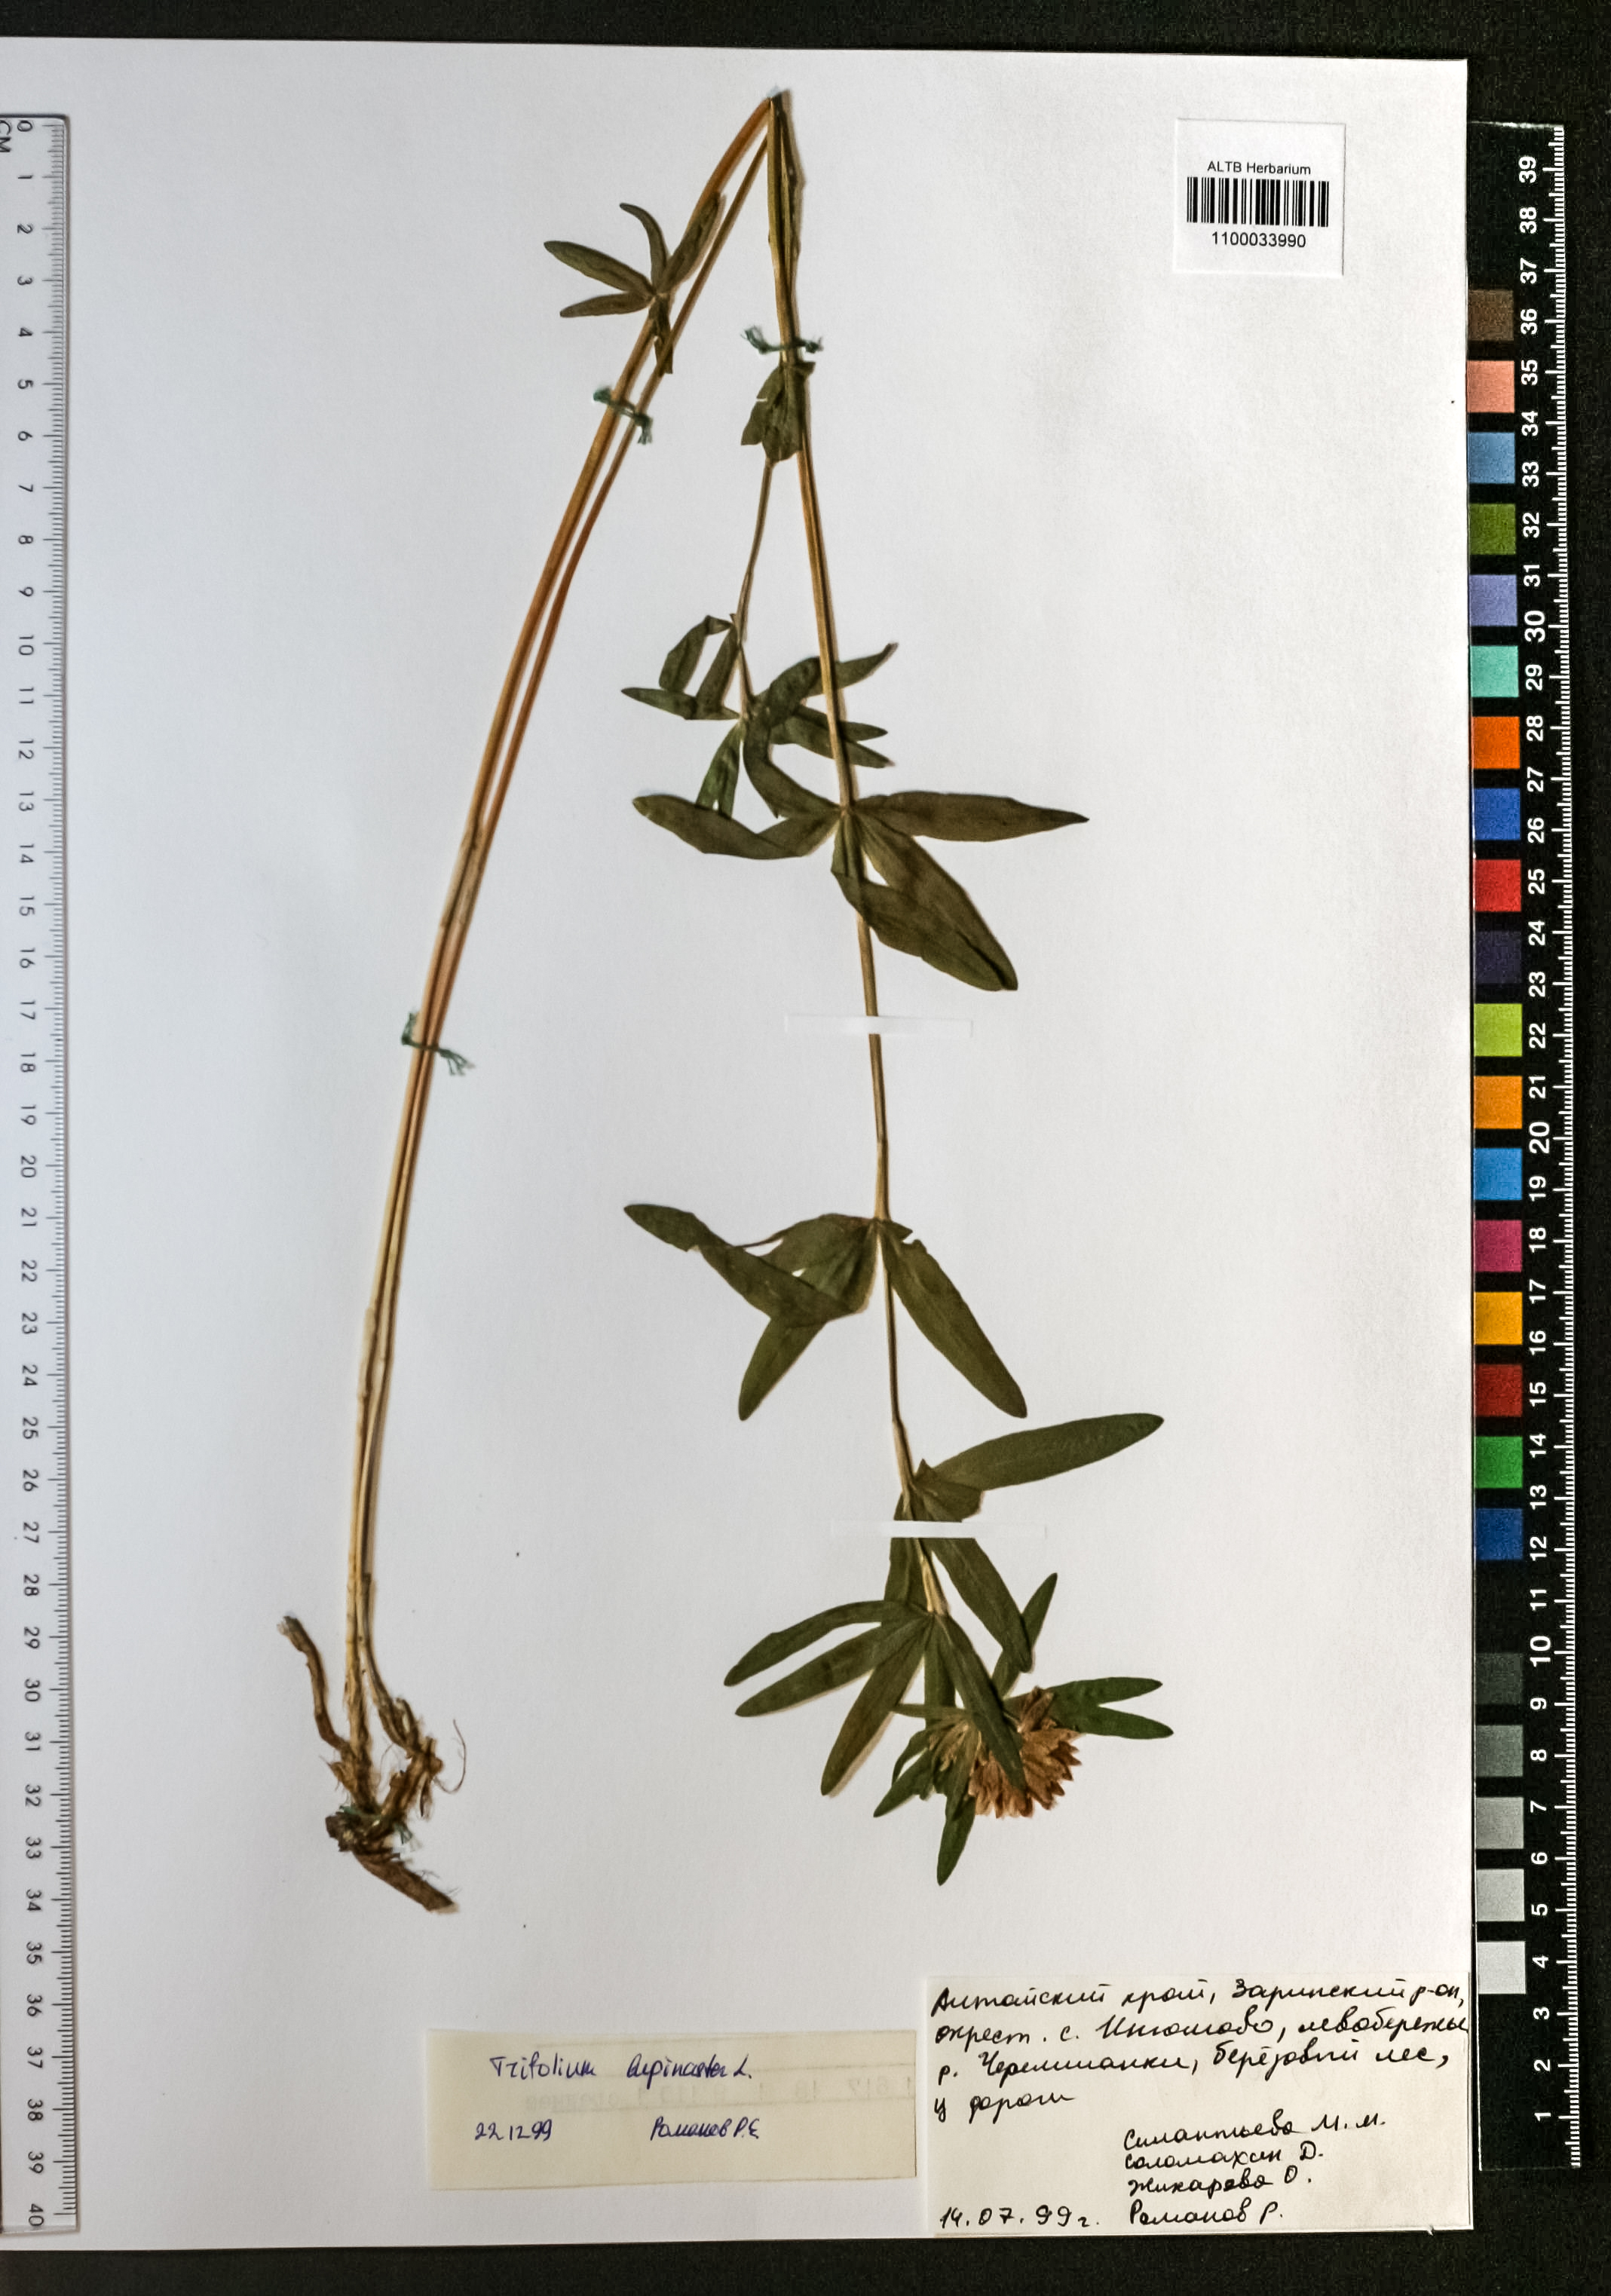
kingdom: Plantae
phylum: Tracheophyta
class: Magnoliopsida
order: Fabales
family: Fabaceae
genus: Trifolium
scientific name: Trifolium lupinaster
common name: Lupine clover
